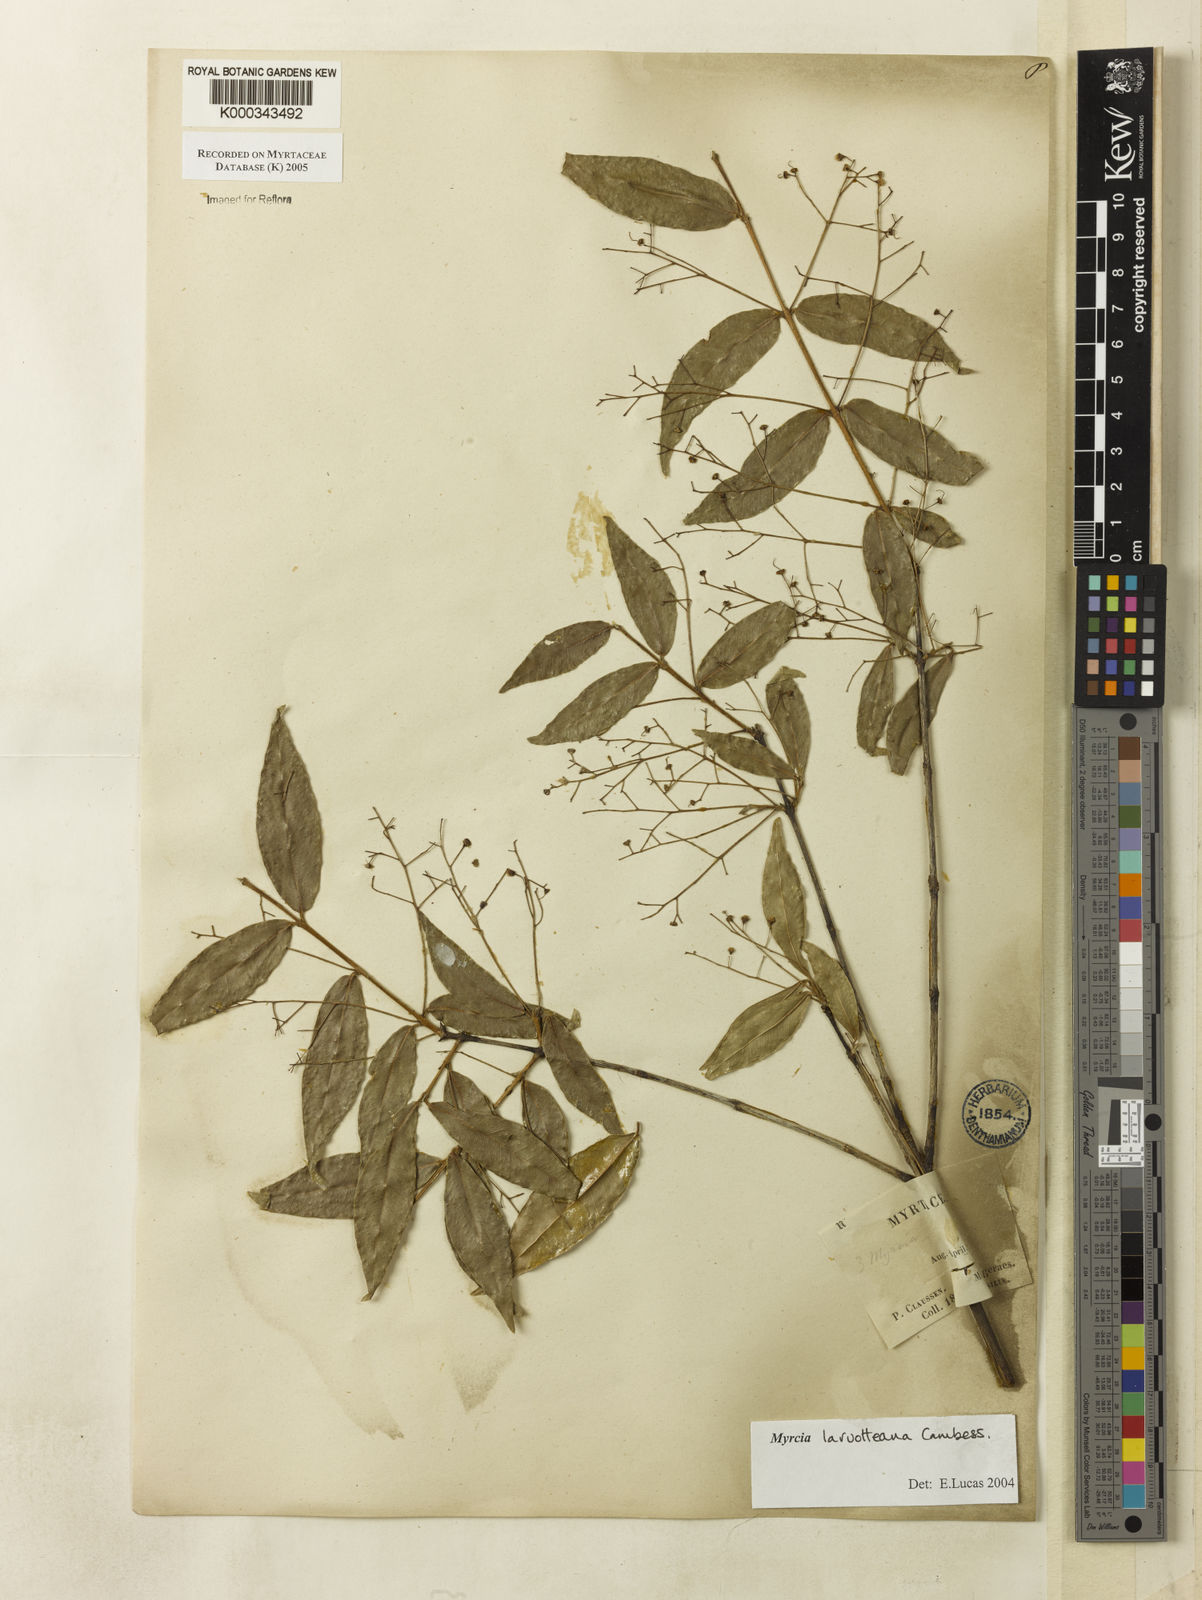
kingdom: Plantae
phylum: Tracheophyta
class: Magnoliopsida
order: Myrtales
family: Myrtaceae
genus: Myrcia
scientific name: Myrcia laruotteana
